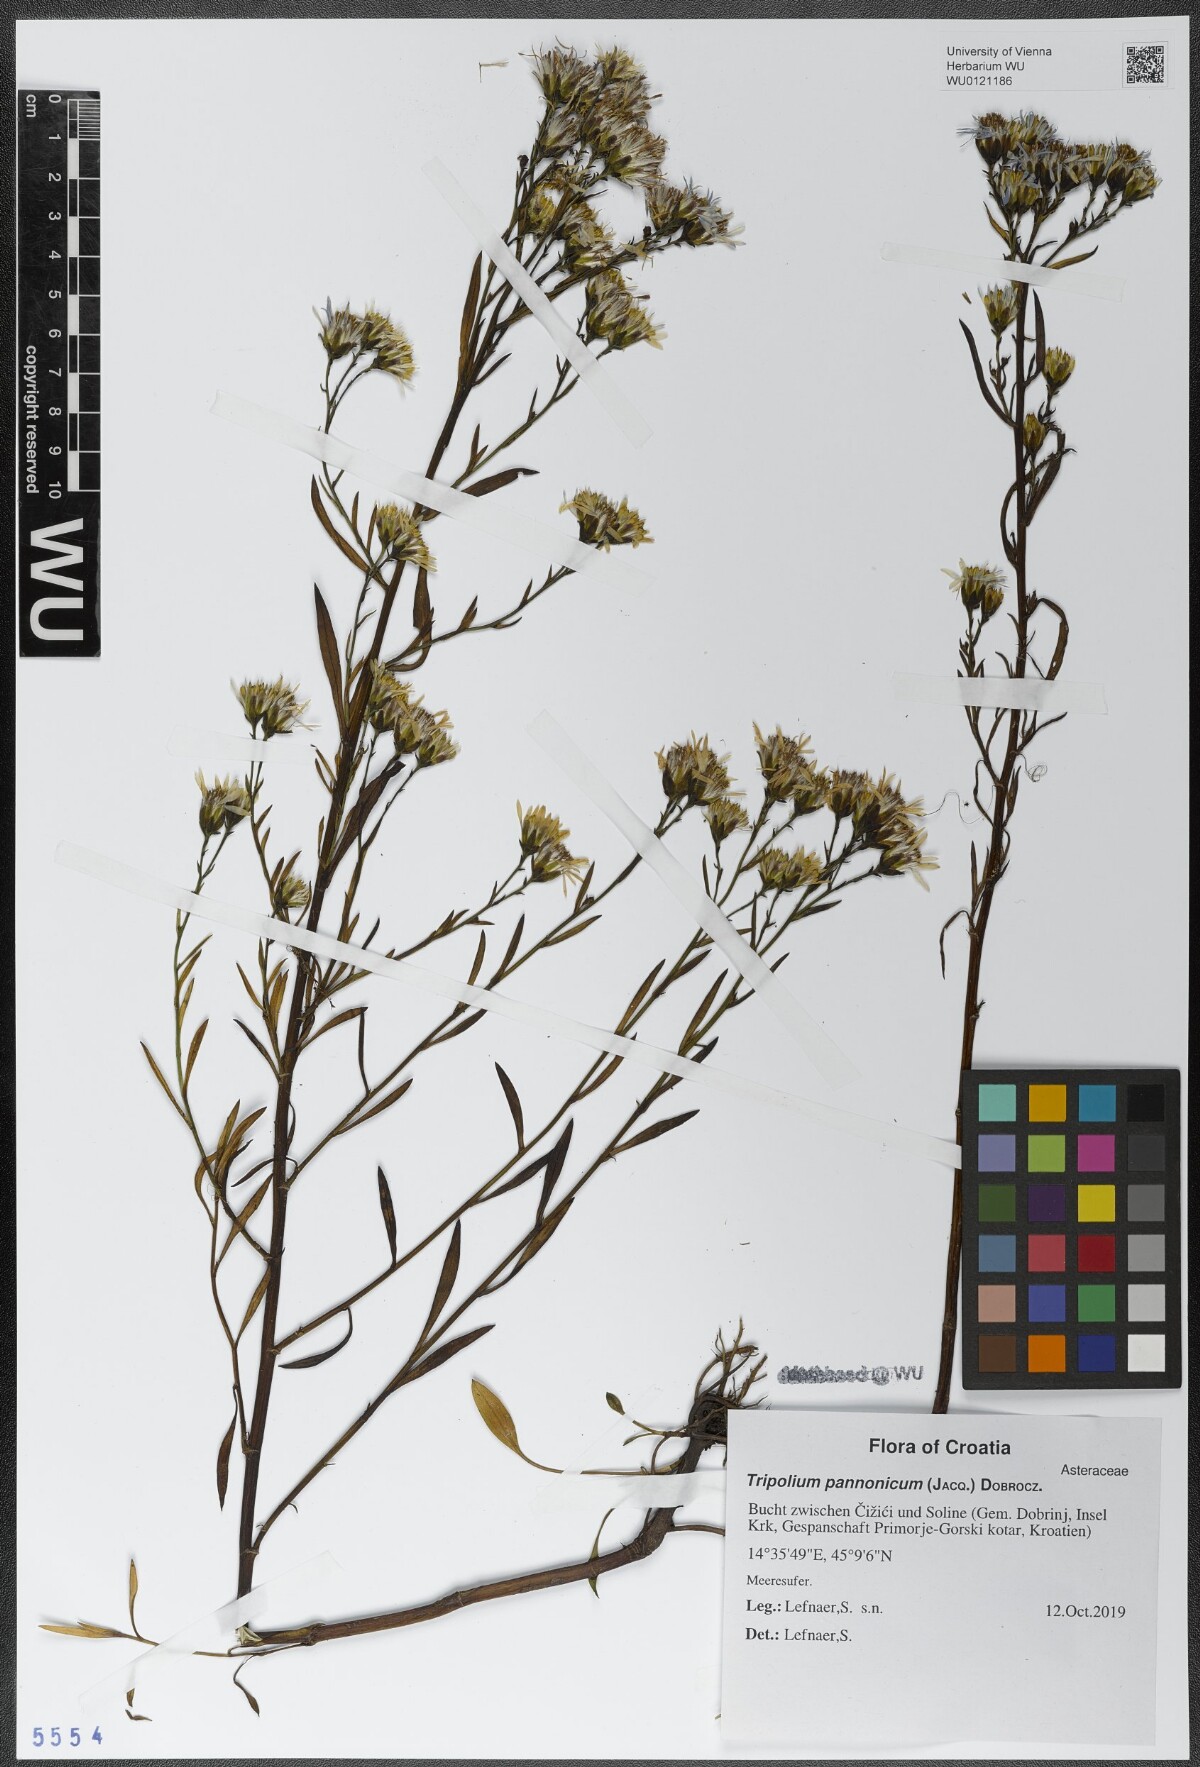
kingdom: Plantae
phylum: Tracheophyta
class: Magnoliopsida
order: Asterales
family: Asteraceae
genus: Tripolium
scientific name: Tripolium pannonicum
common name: Sea aster
